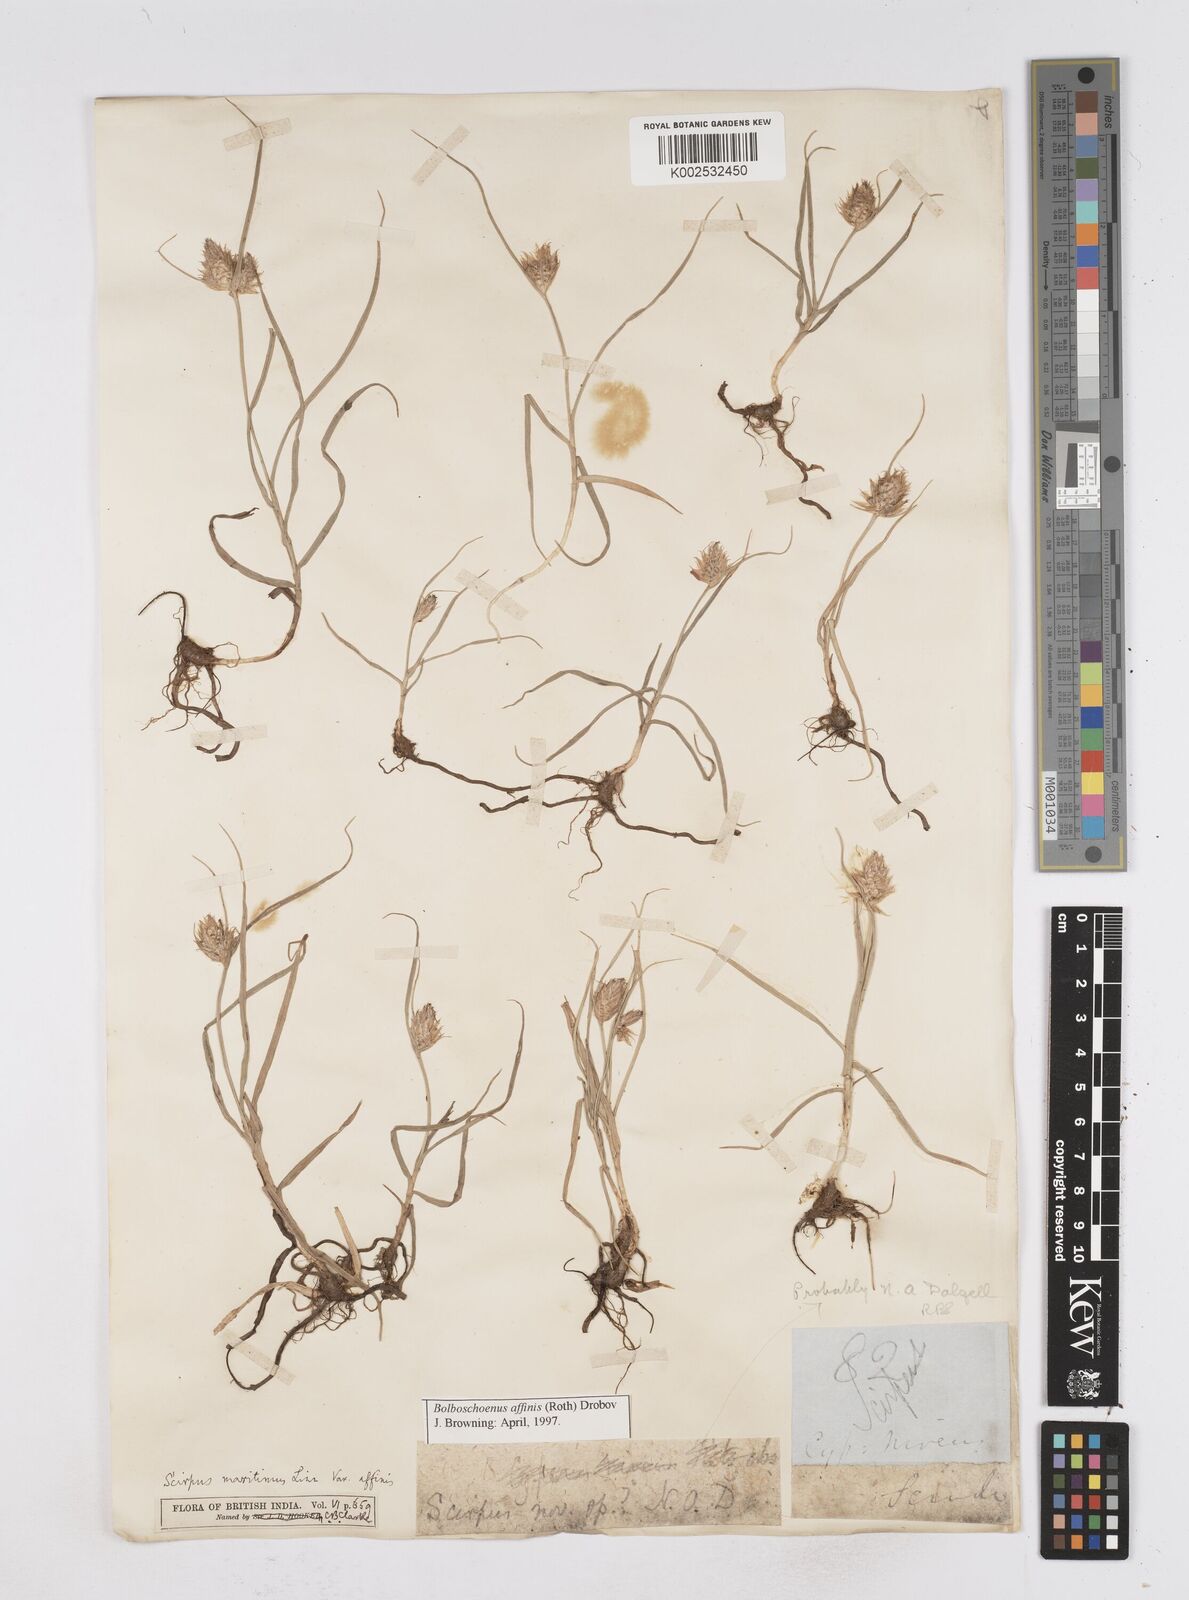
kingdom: Plantae
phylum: Tracheophyta
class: Liliopsida
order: Poales
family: Cyperaceae
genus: Bolboschoenus
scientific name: Bolboschoenus maritimus
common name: Sea club-rush
